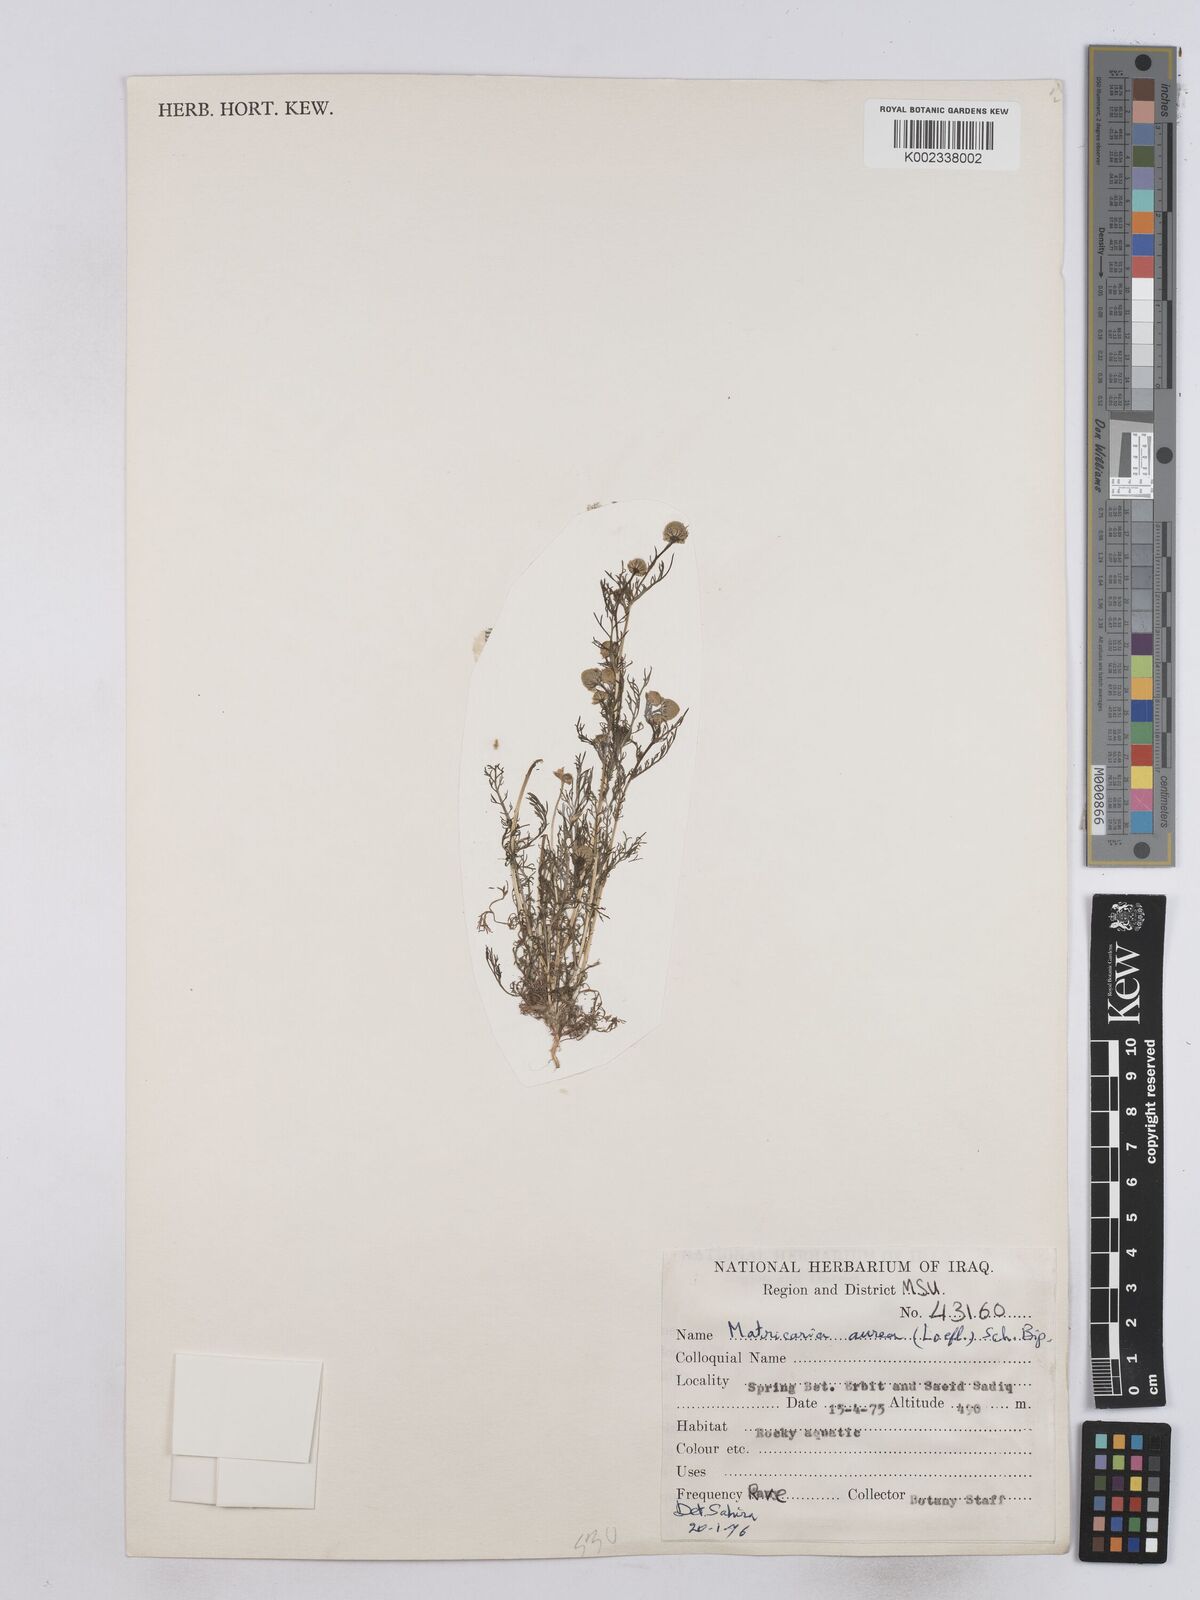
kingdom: Plantae
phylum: Tracheophyta
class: Magnoliopsida
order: Asterales
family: Asteraceae
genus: Matricaria
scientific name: Matricaria aurea
